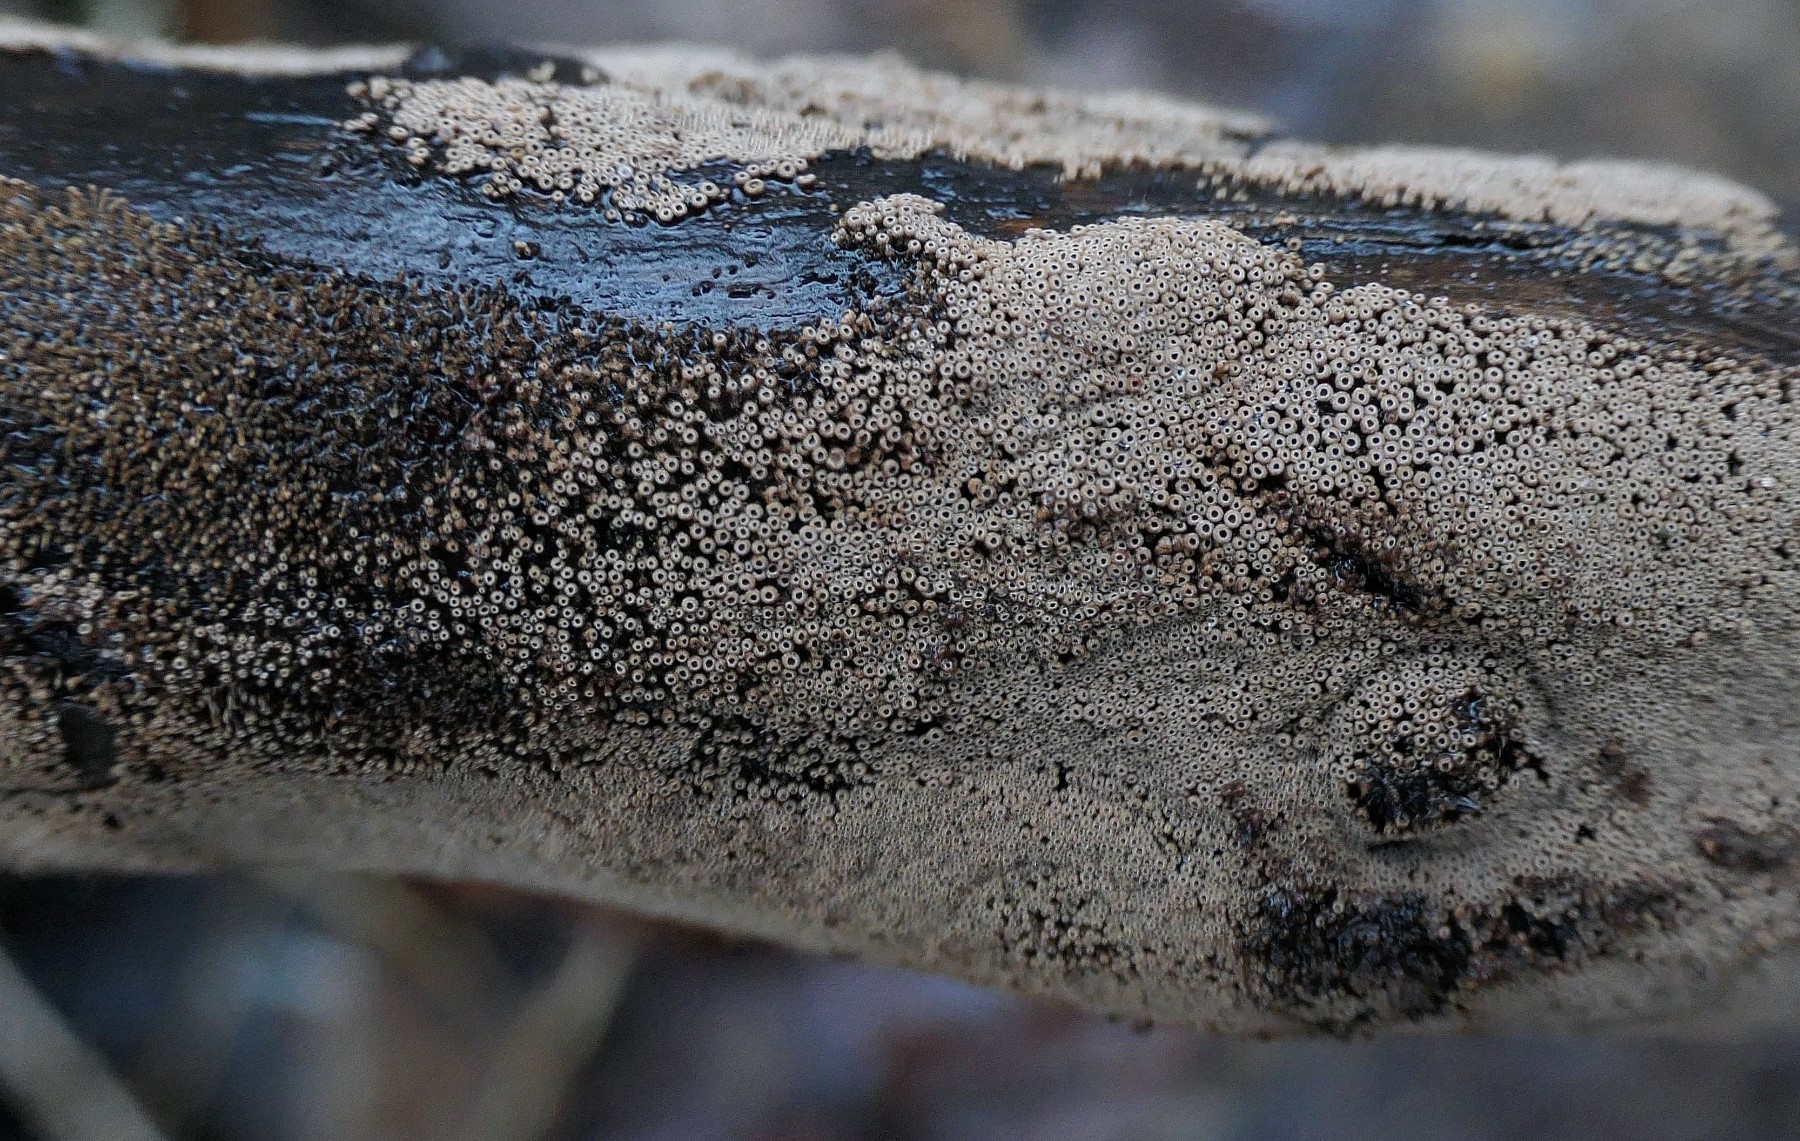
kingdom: Fungi
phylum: Basidiomycota
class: Agaricomycetes
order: Agaricales
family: Niaceae
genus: Merismodes
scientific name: Merismodes anomala
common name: almindelig læderskål
